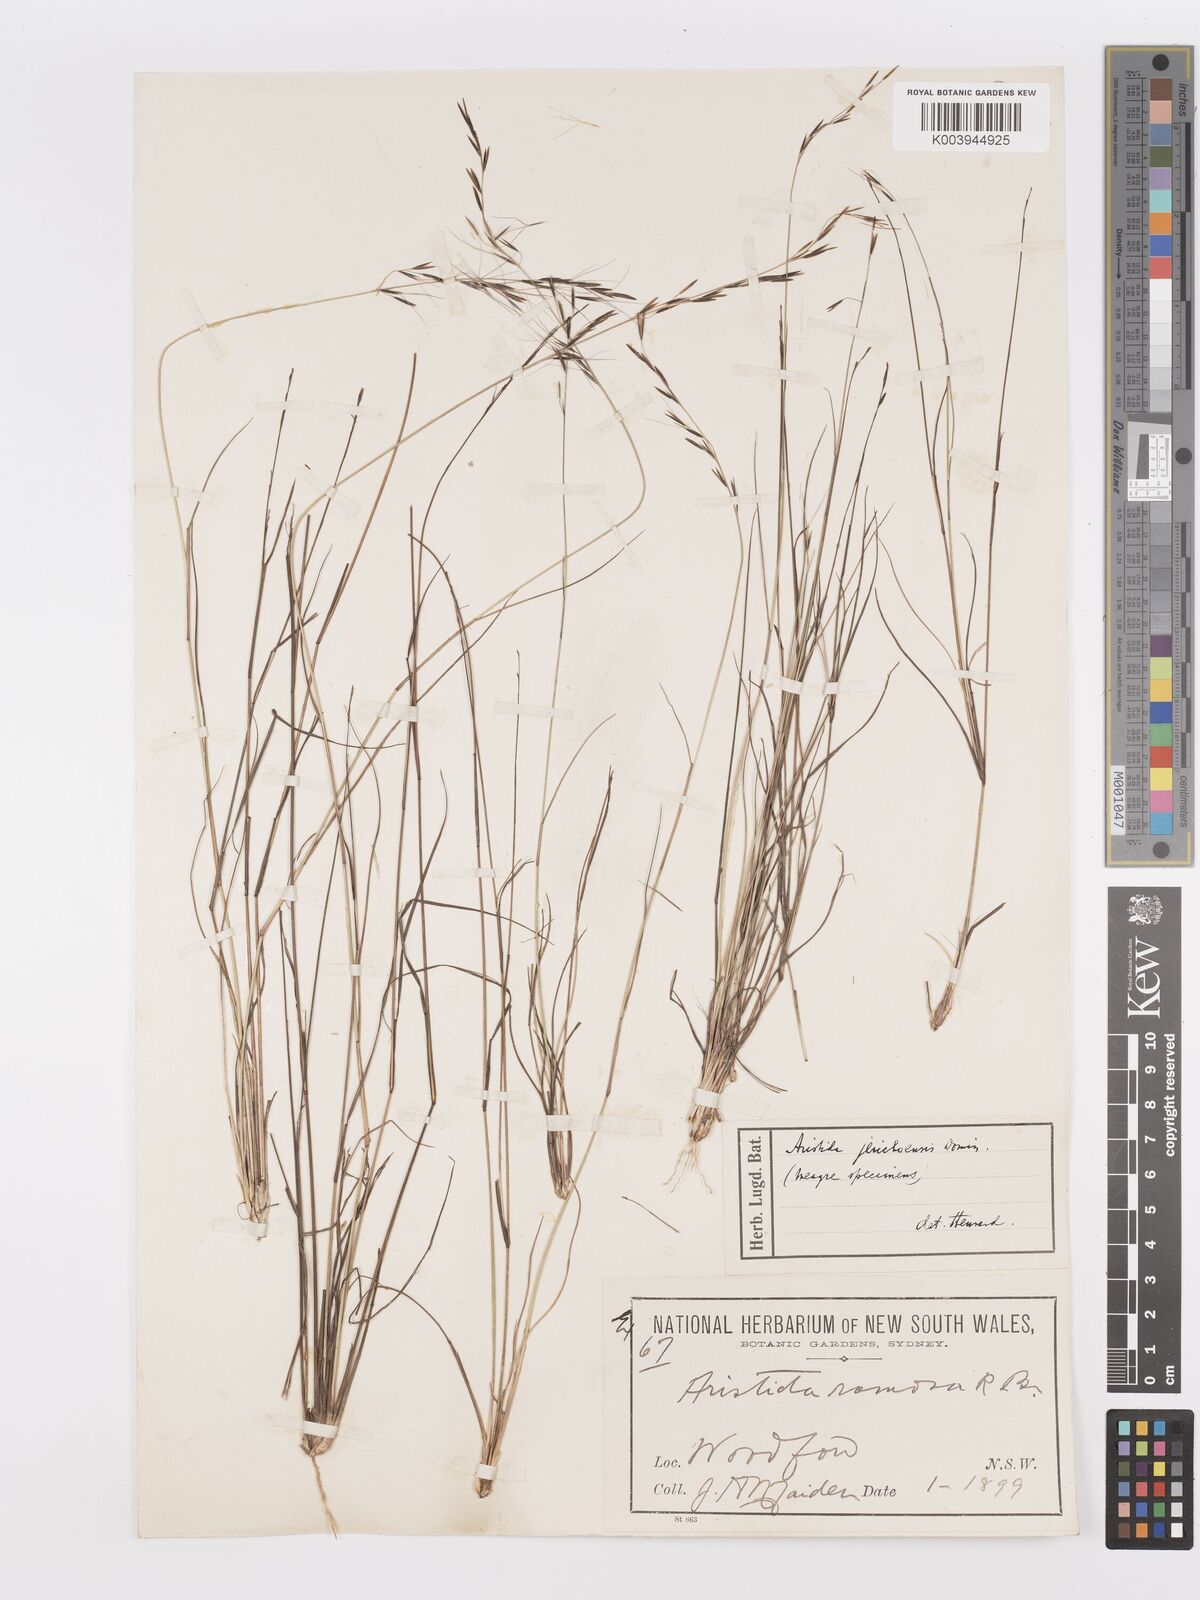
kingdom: Plantae
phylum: Tracheophyta
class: Liliopsida
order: Poales
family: Poaceae
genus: Aristida
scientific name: Aristida jerichoensis
